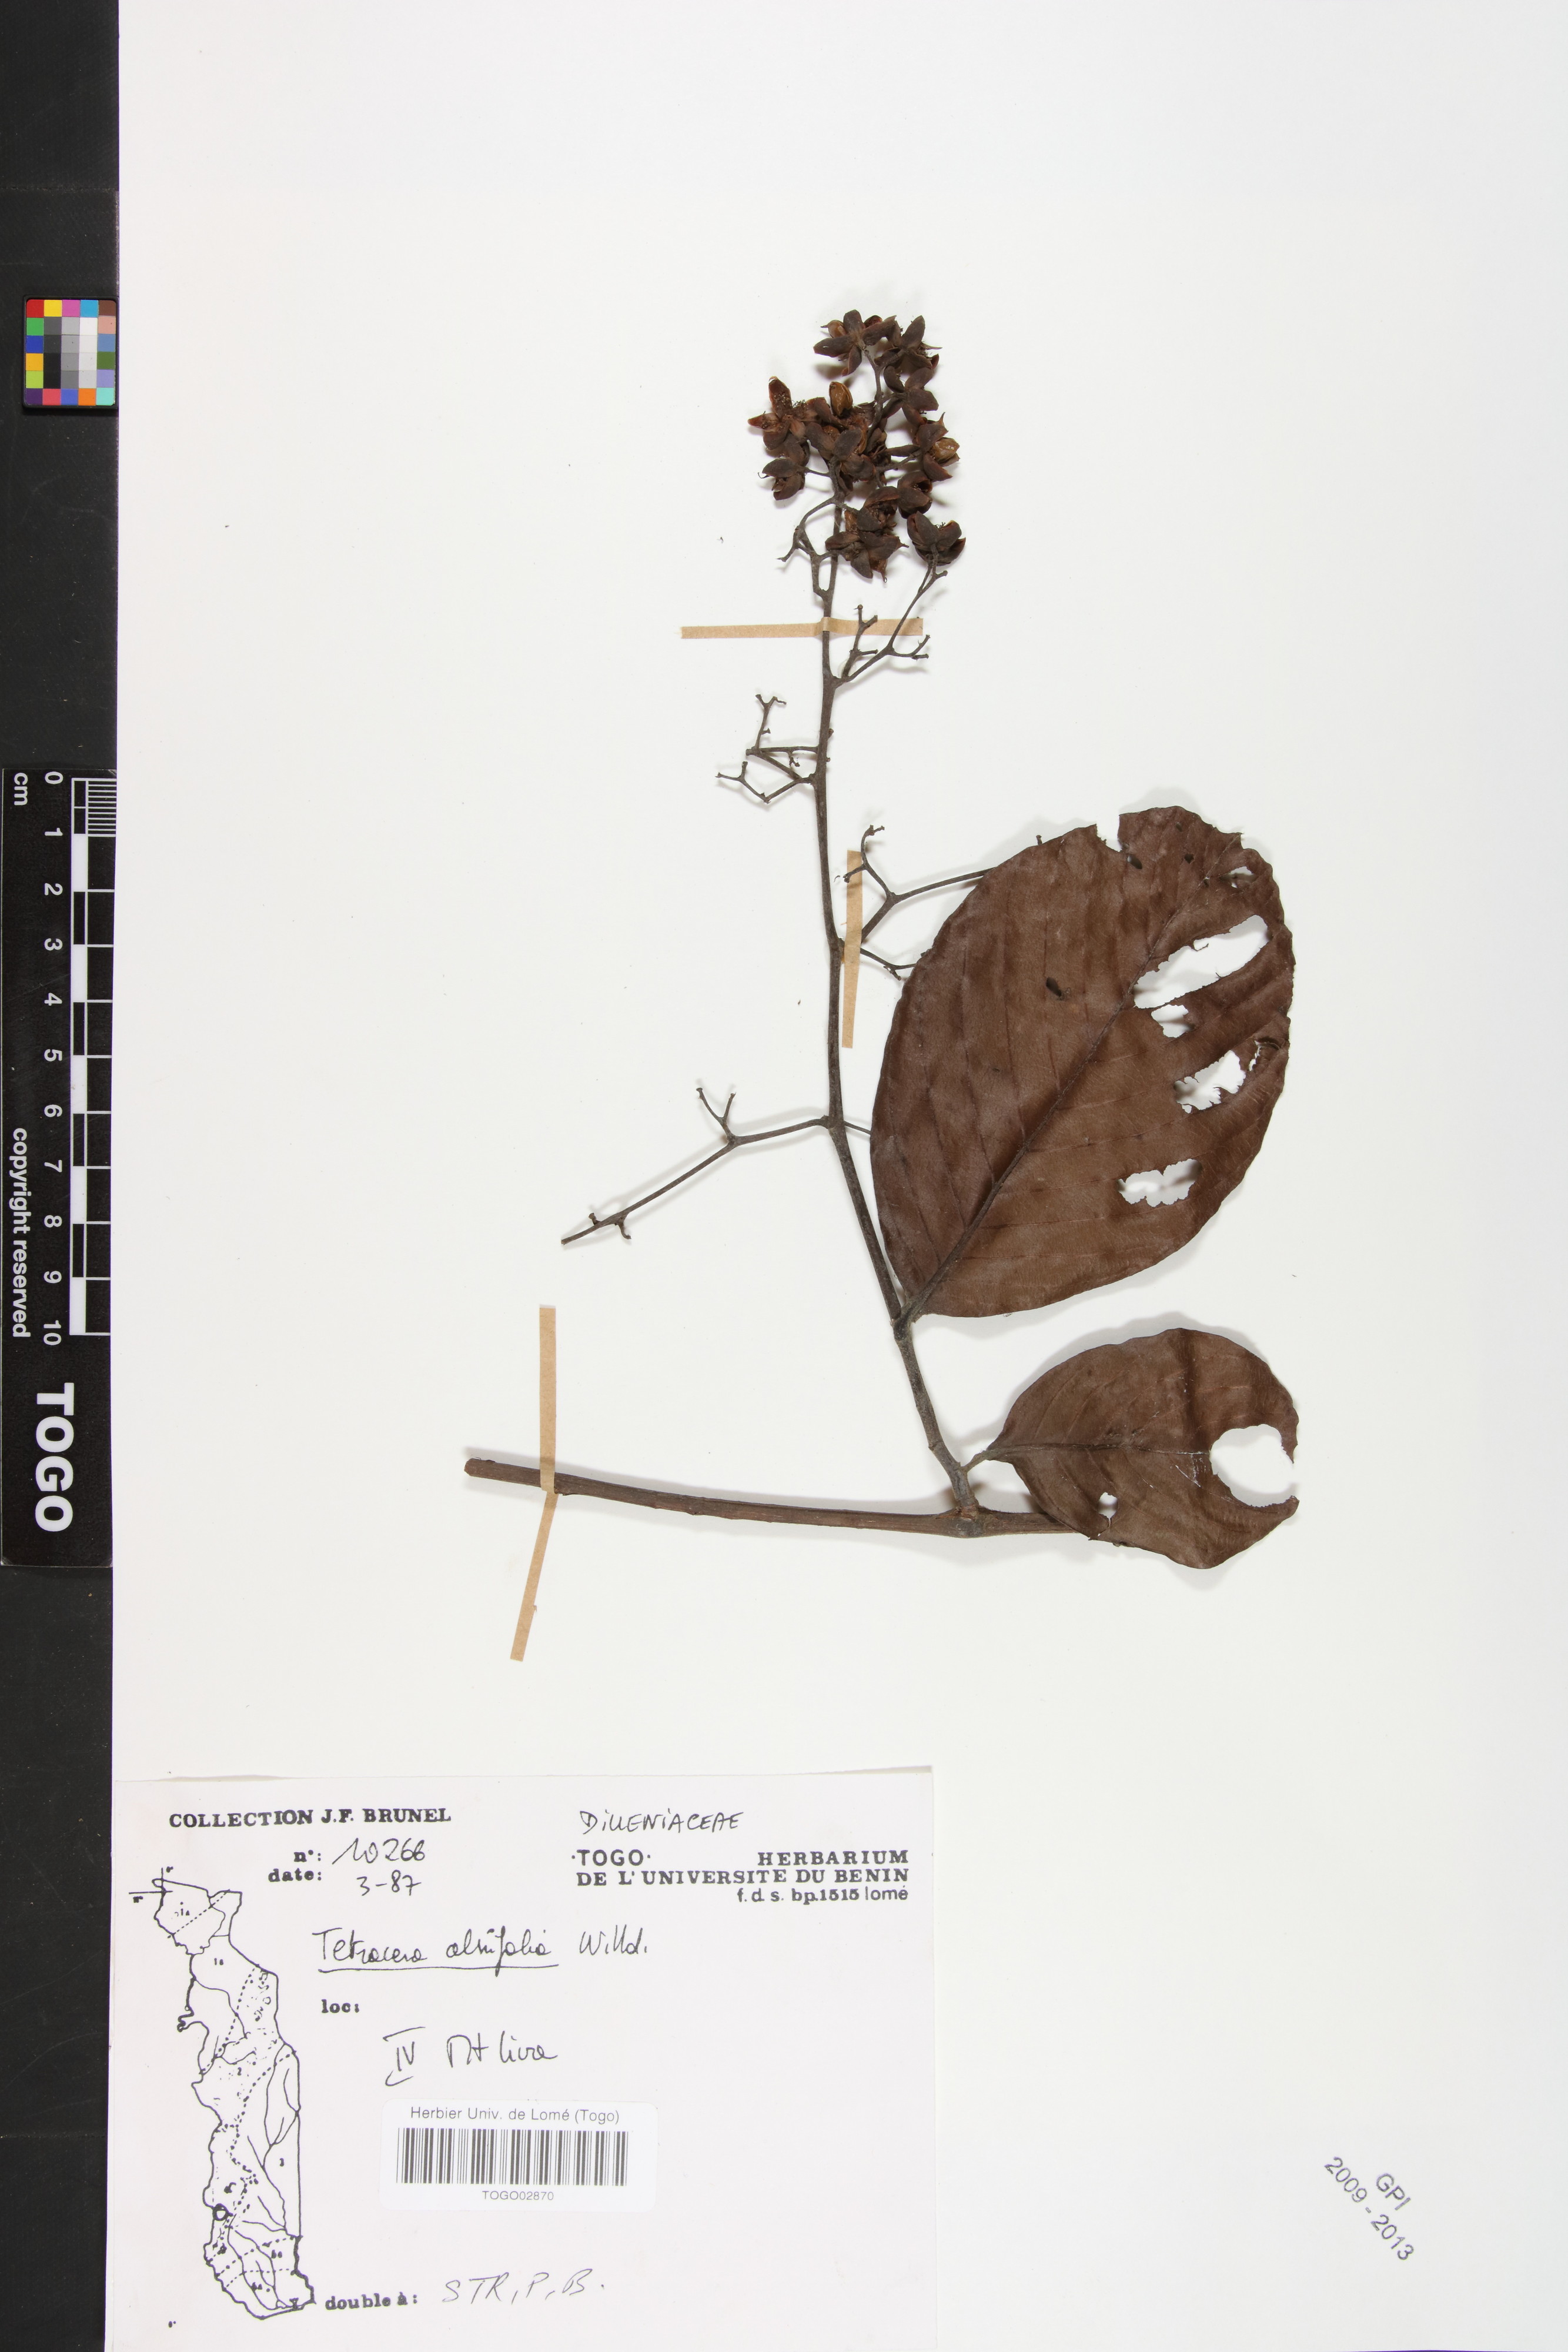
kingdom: Plantae
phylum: Tracheophyta
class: Magnoliopsida
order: Dilleniales
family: Dilleniaceae
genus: Tetracera
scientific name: Tetracera alnifolia
